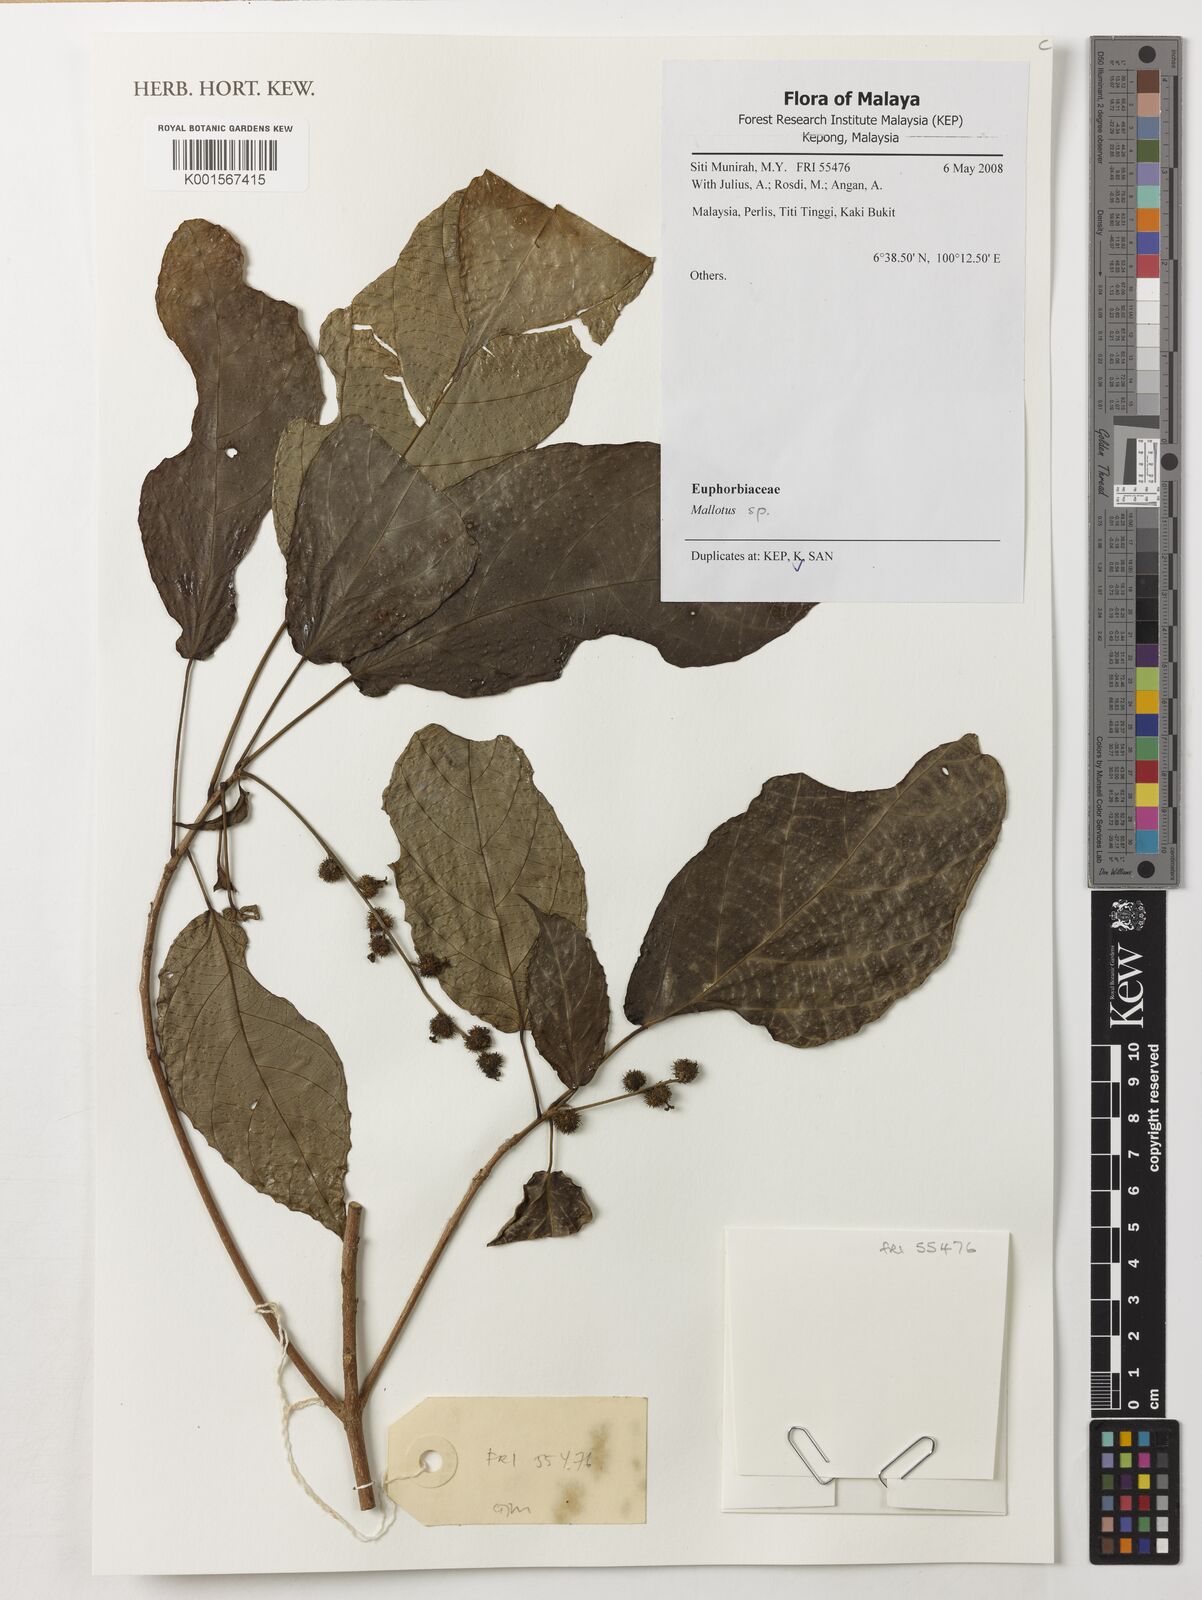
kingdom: Plantae
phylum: Tracheophyta
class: Magnoliopsida
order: Malpighiales
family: Euphorbiaceae
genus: Mallotus
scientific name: Mallotus
